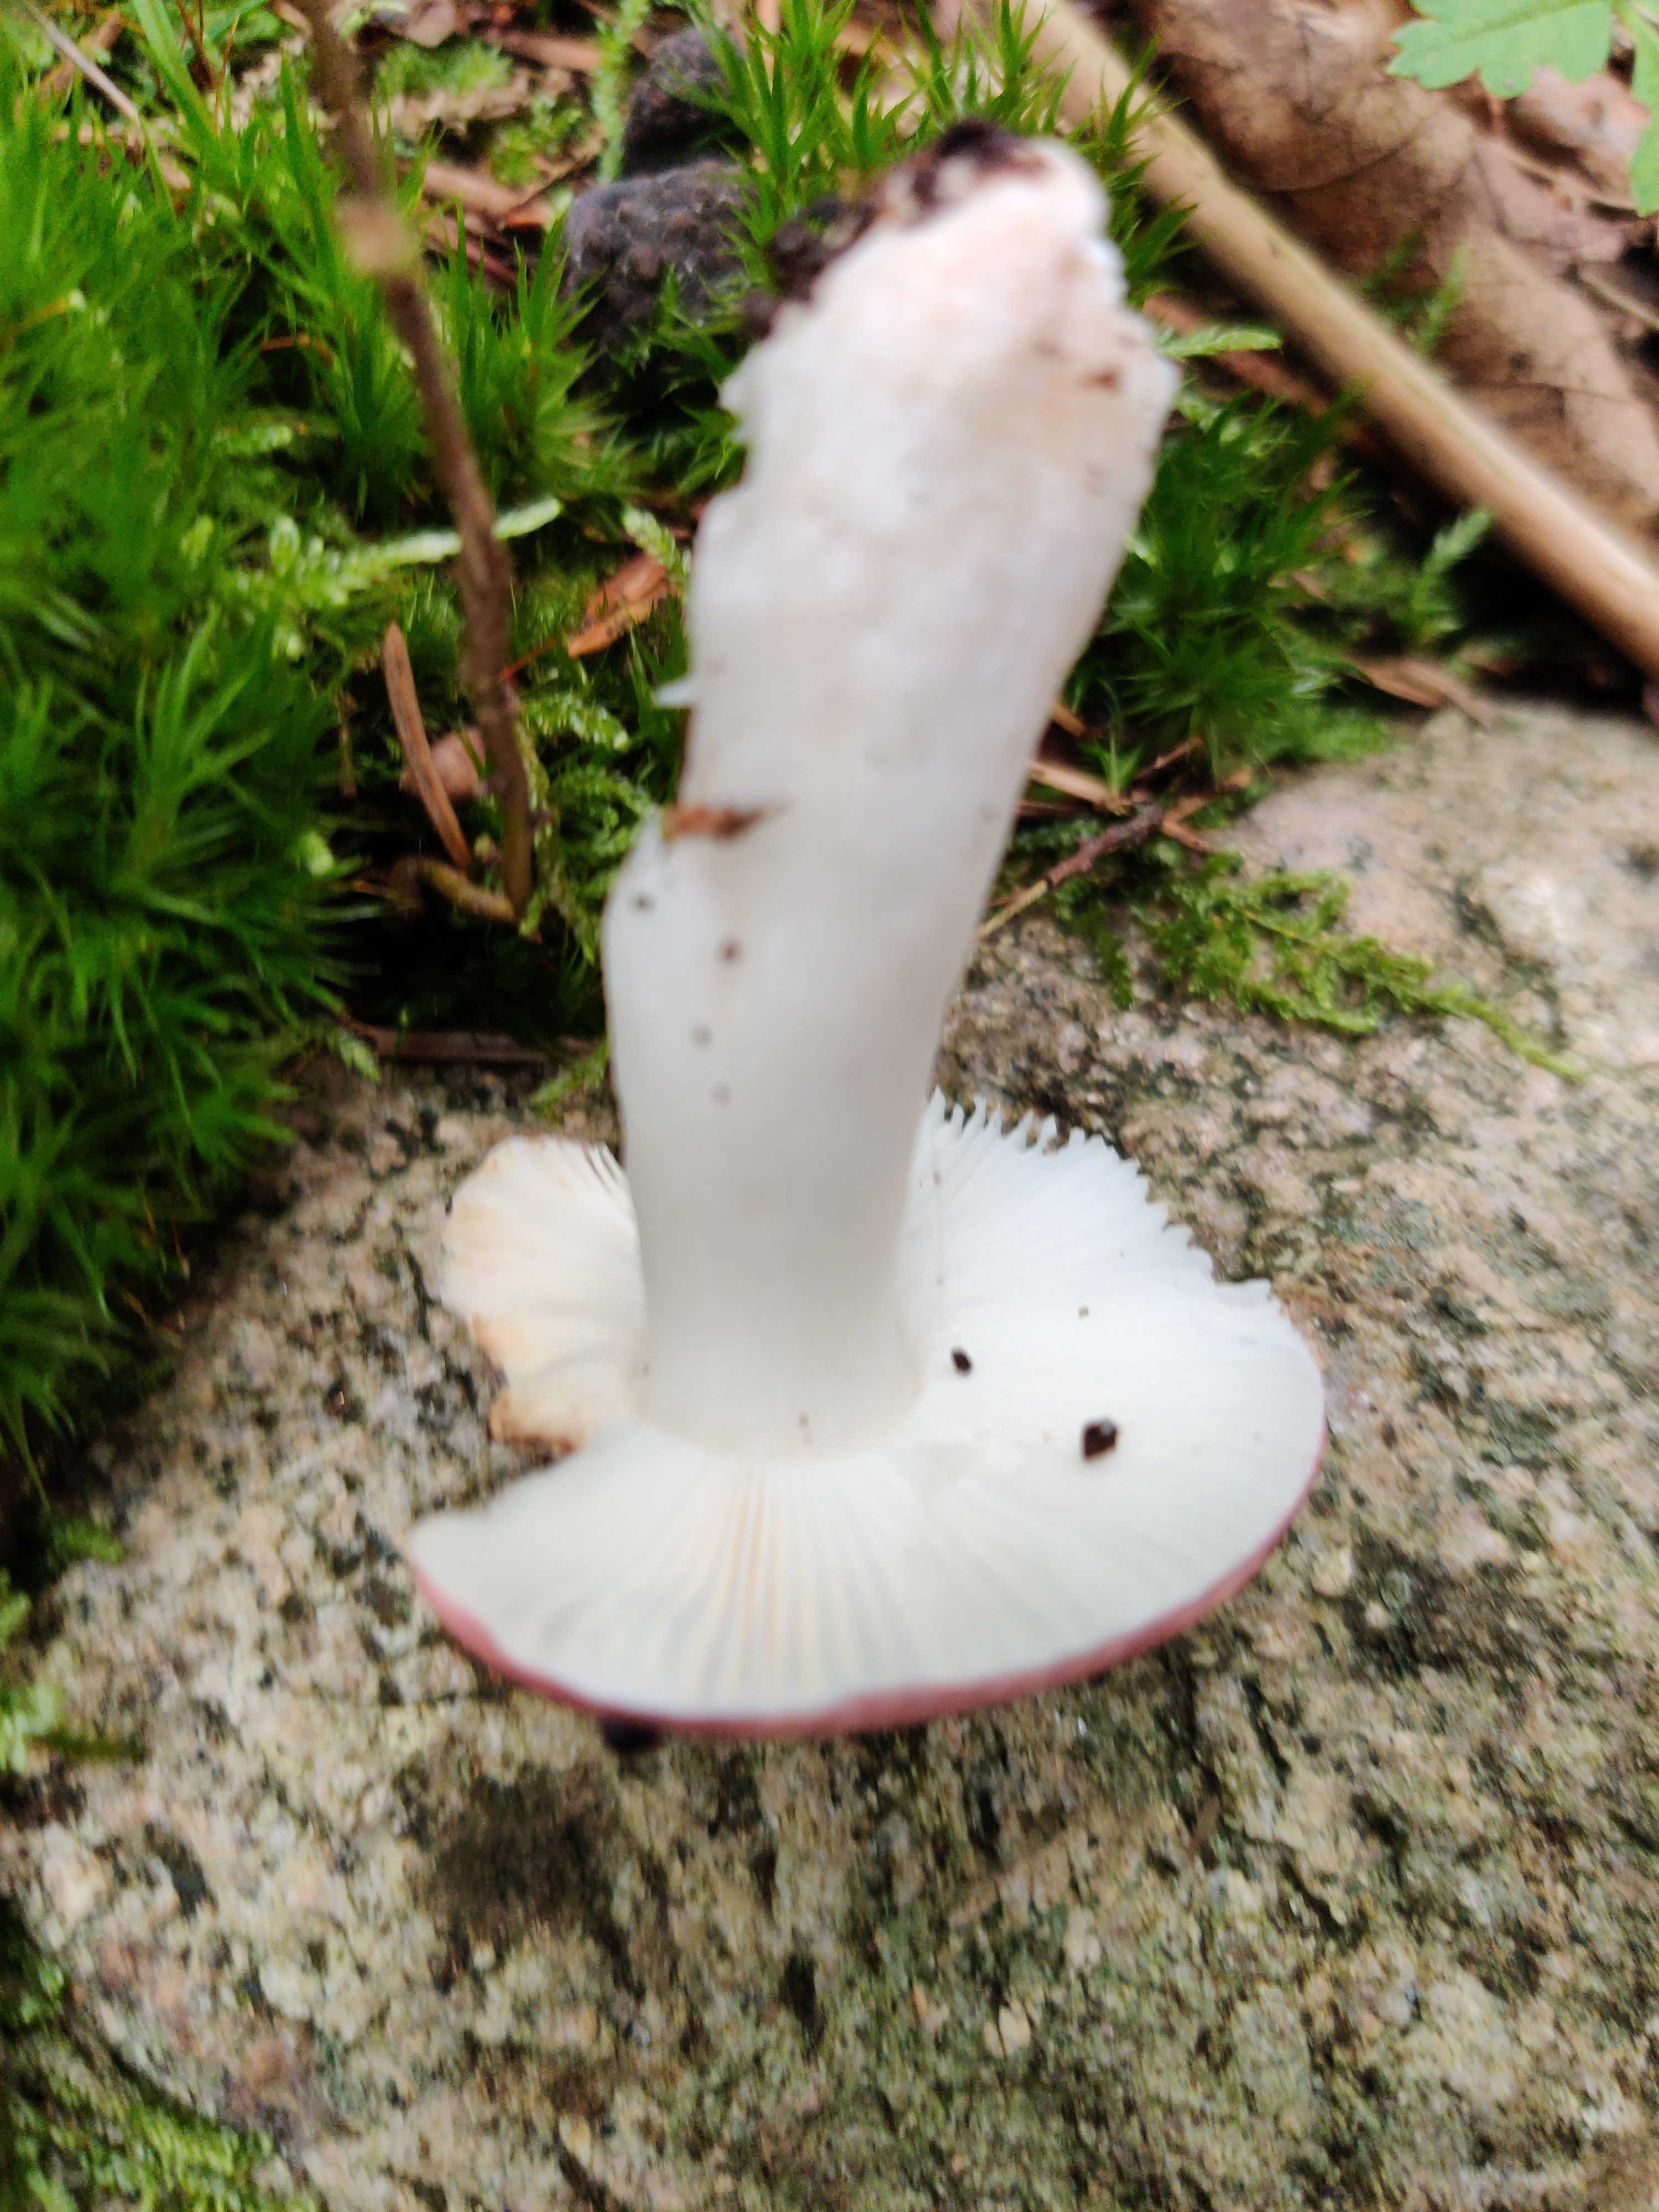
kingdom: Fungi
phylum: Basidiomycota
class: Agaricomycetes
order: Russulales
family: Russulaceae
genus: Russula
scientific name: Russula fragilis
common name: savbladet skørhat
